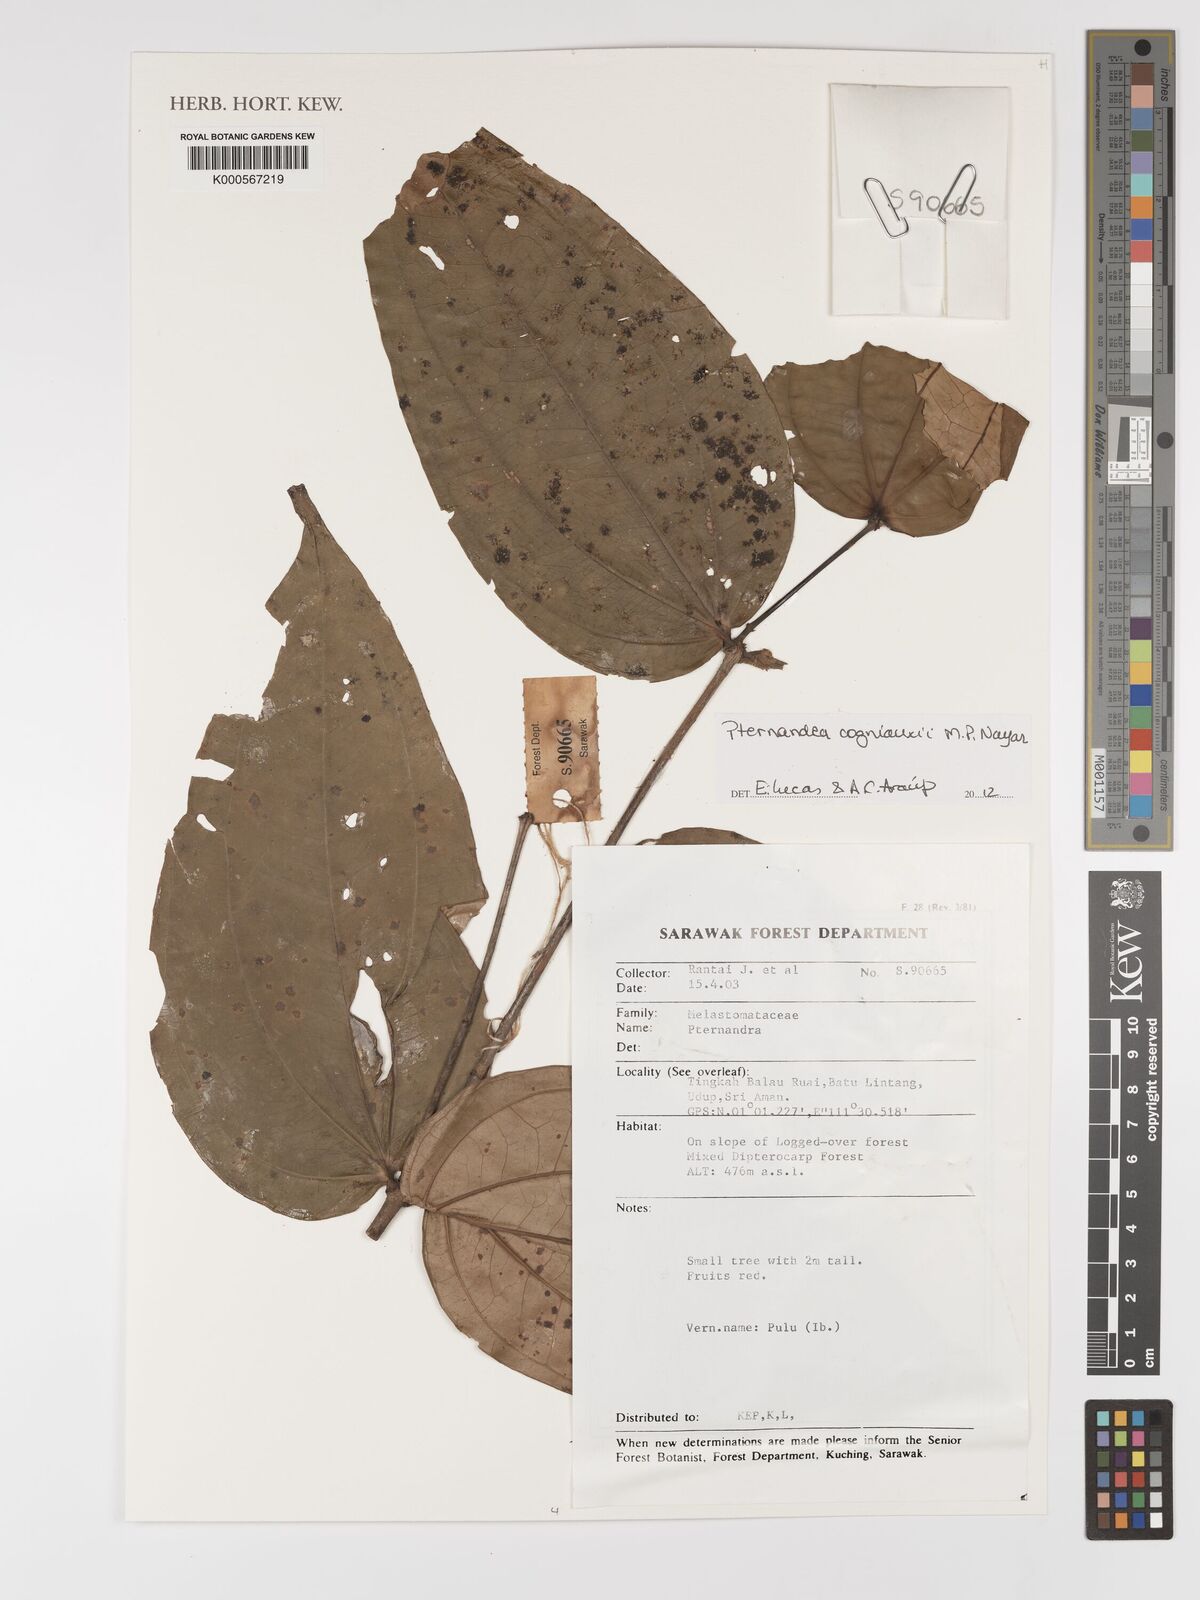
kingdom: Plantae
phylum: Tracheophyta
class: Magnoliopsida
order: Myrtales
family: Melastomataceae
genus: Pternandra
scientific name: Pternandra cogniauxii
